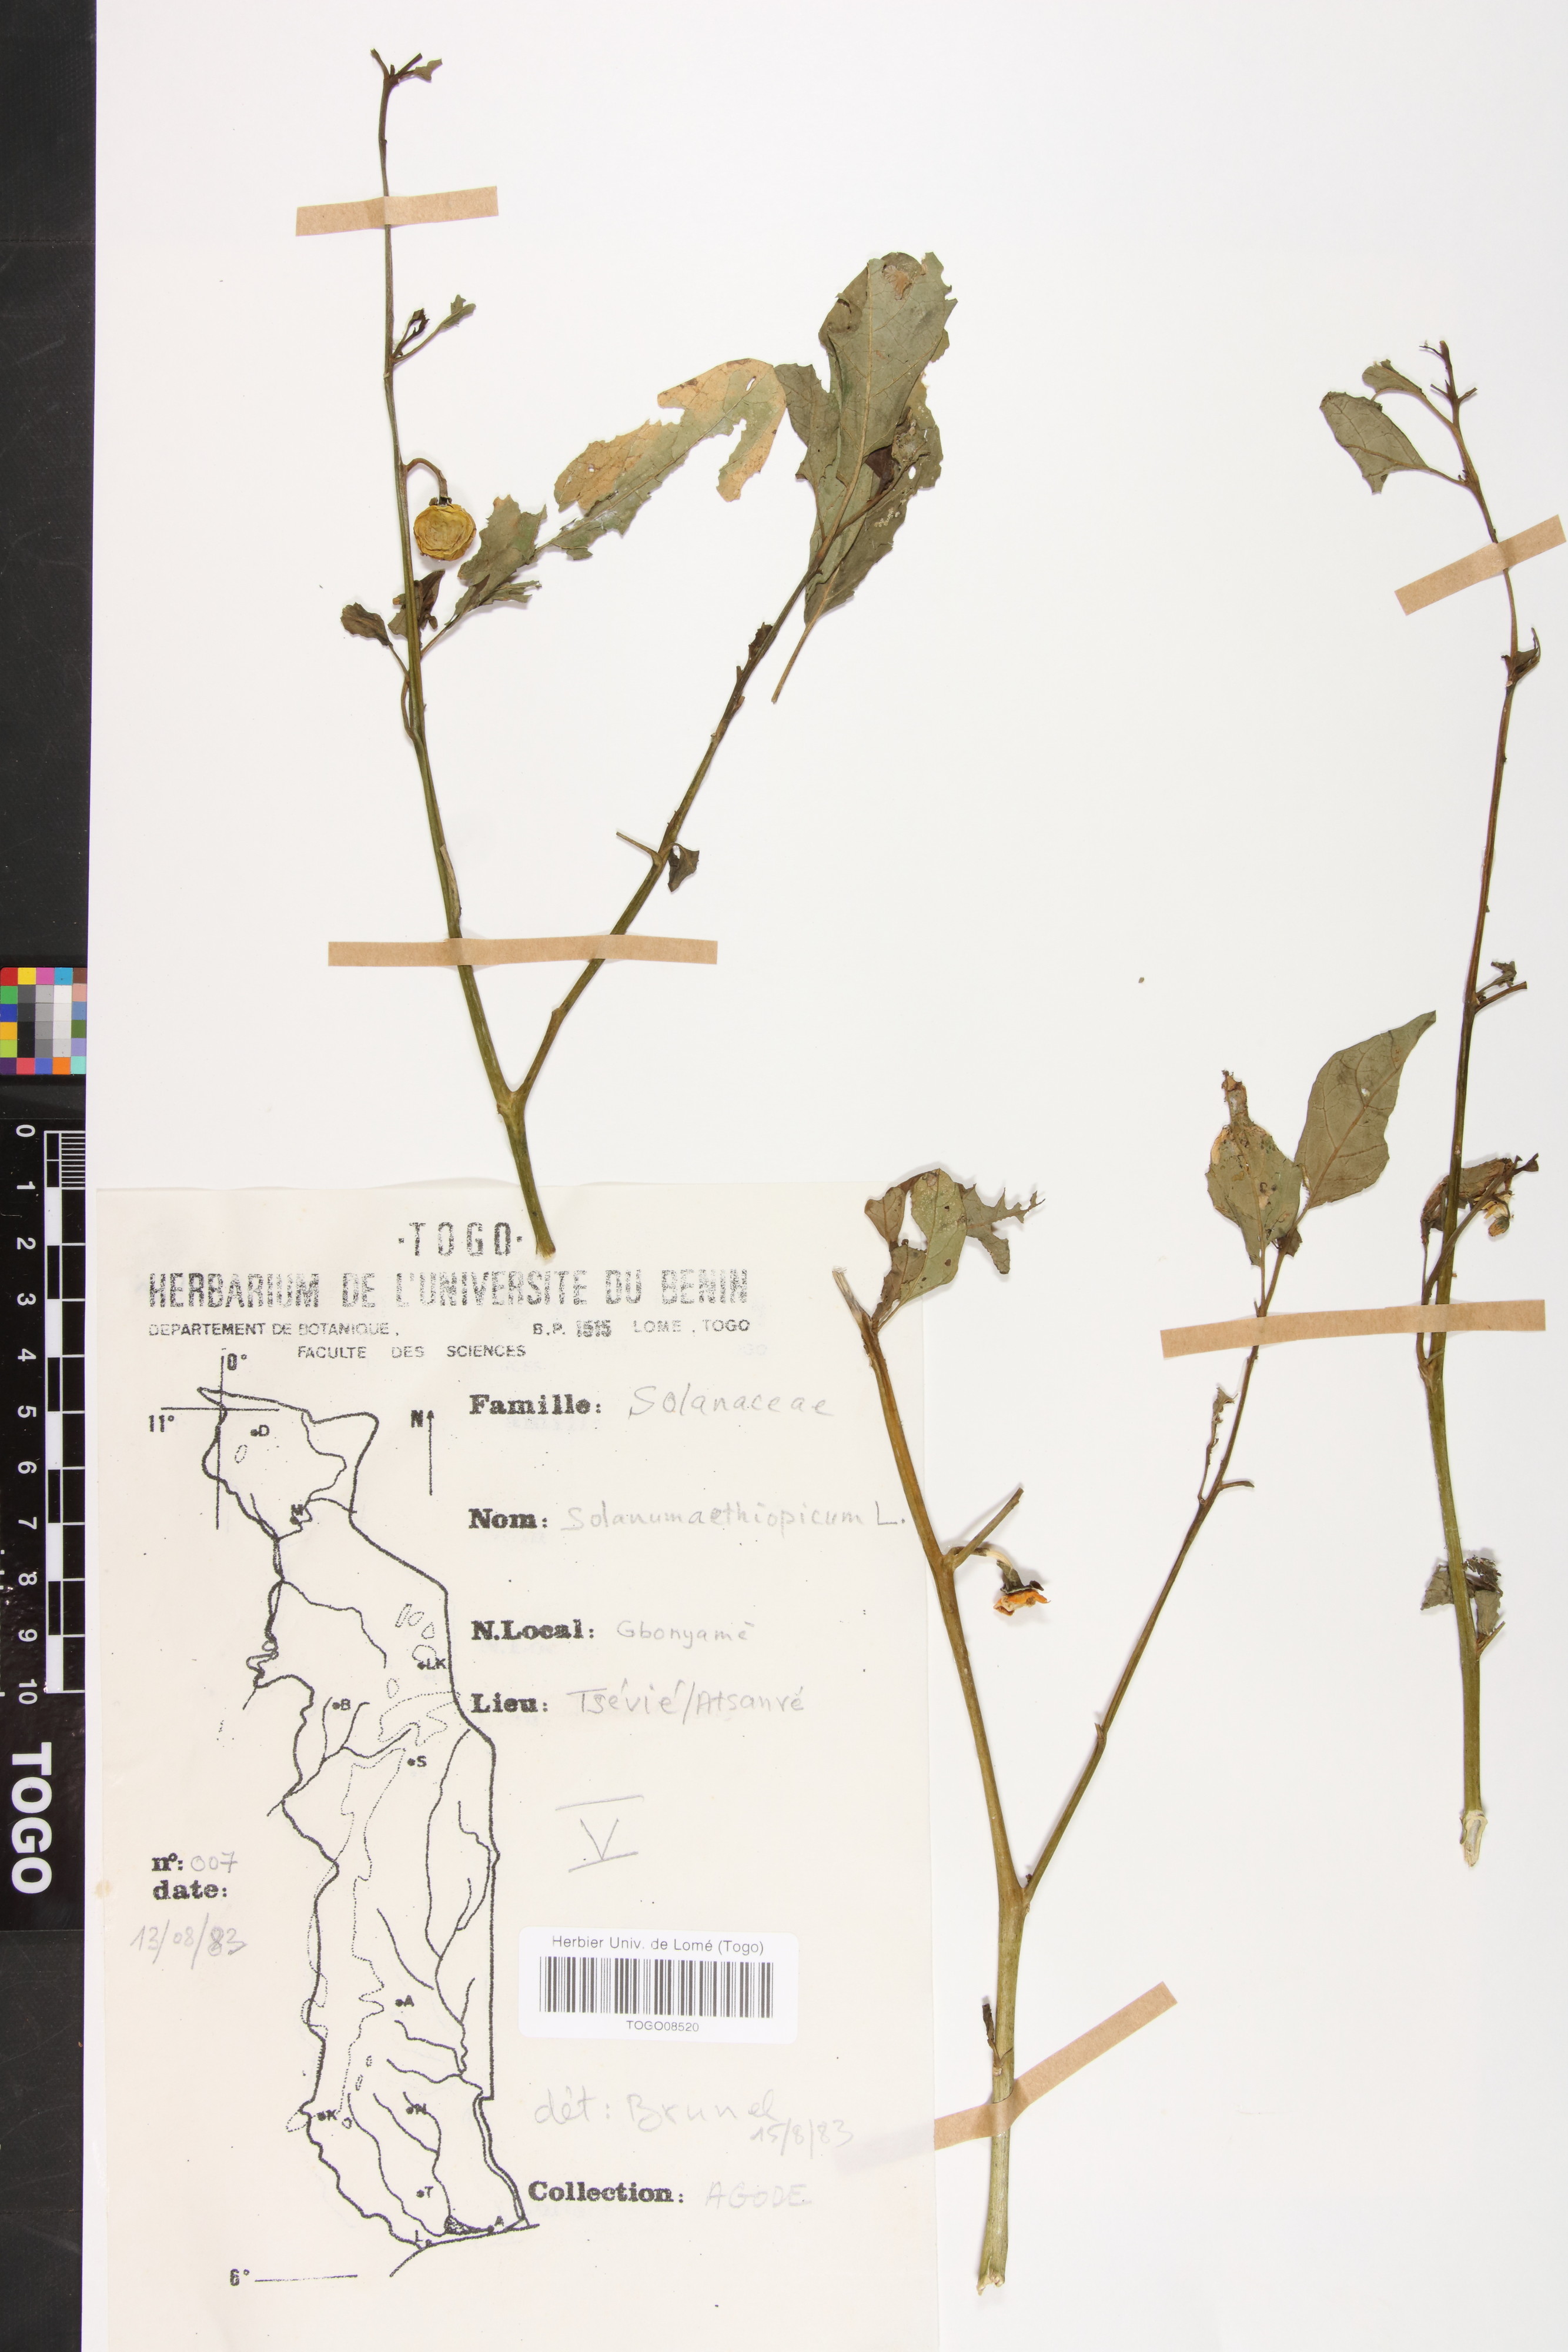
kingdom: Plantae
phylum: Tracheophyta
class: Magnoliopsida
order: Solanales
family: Solanaceae
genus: Solanum
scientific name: Solanum aethiopicum
